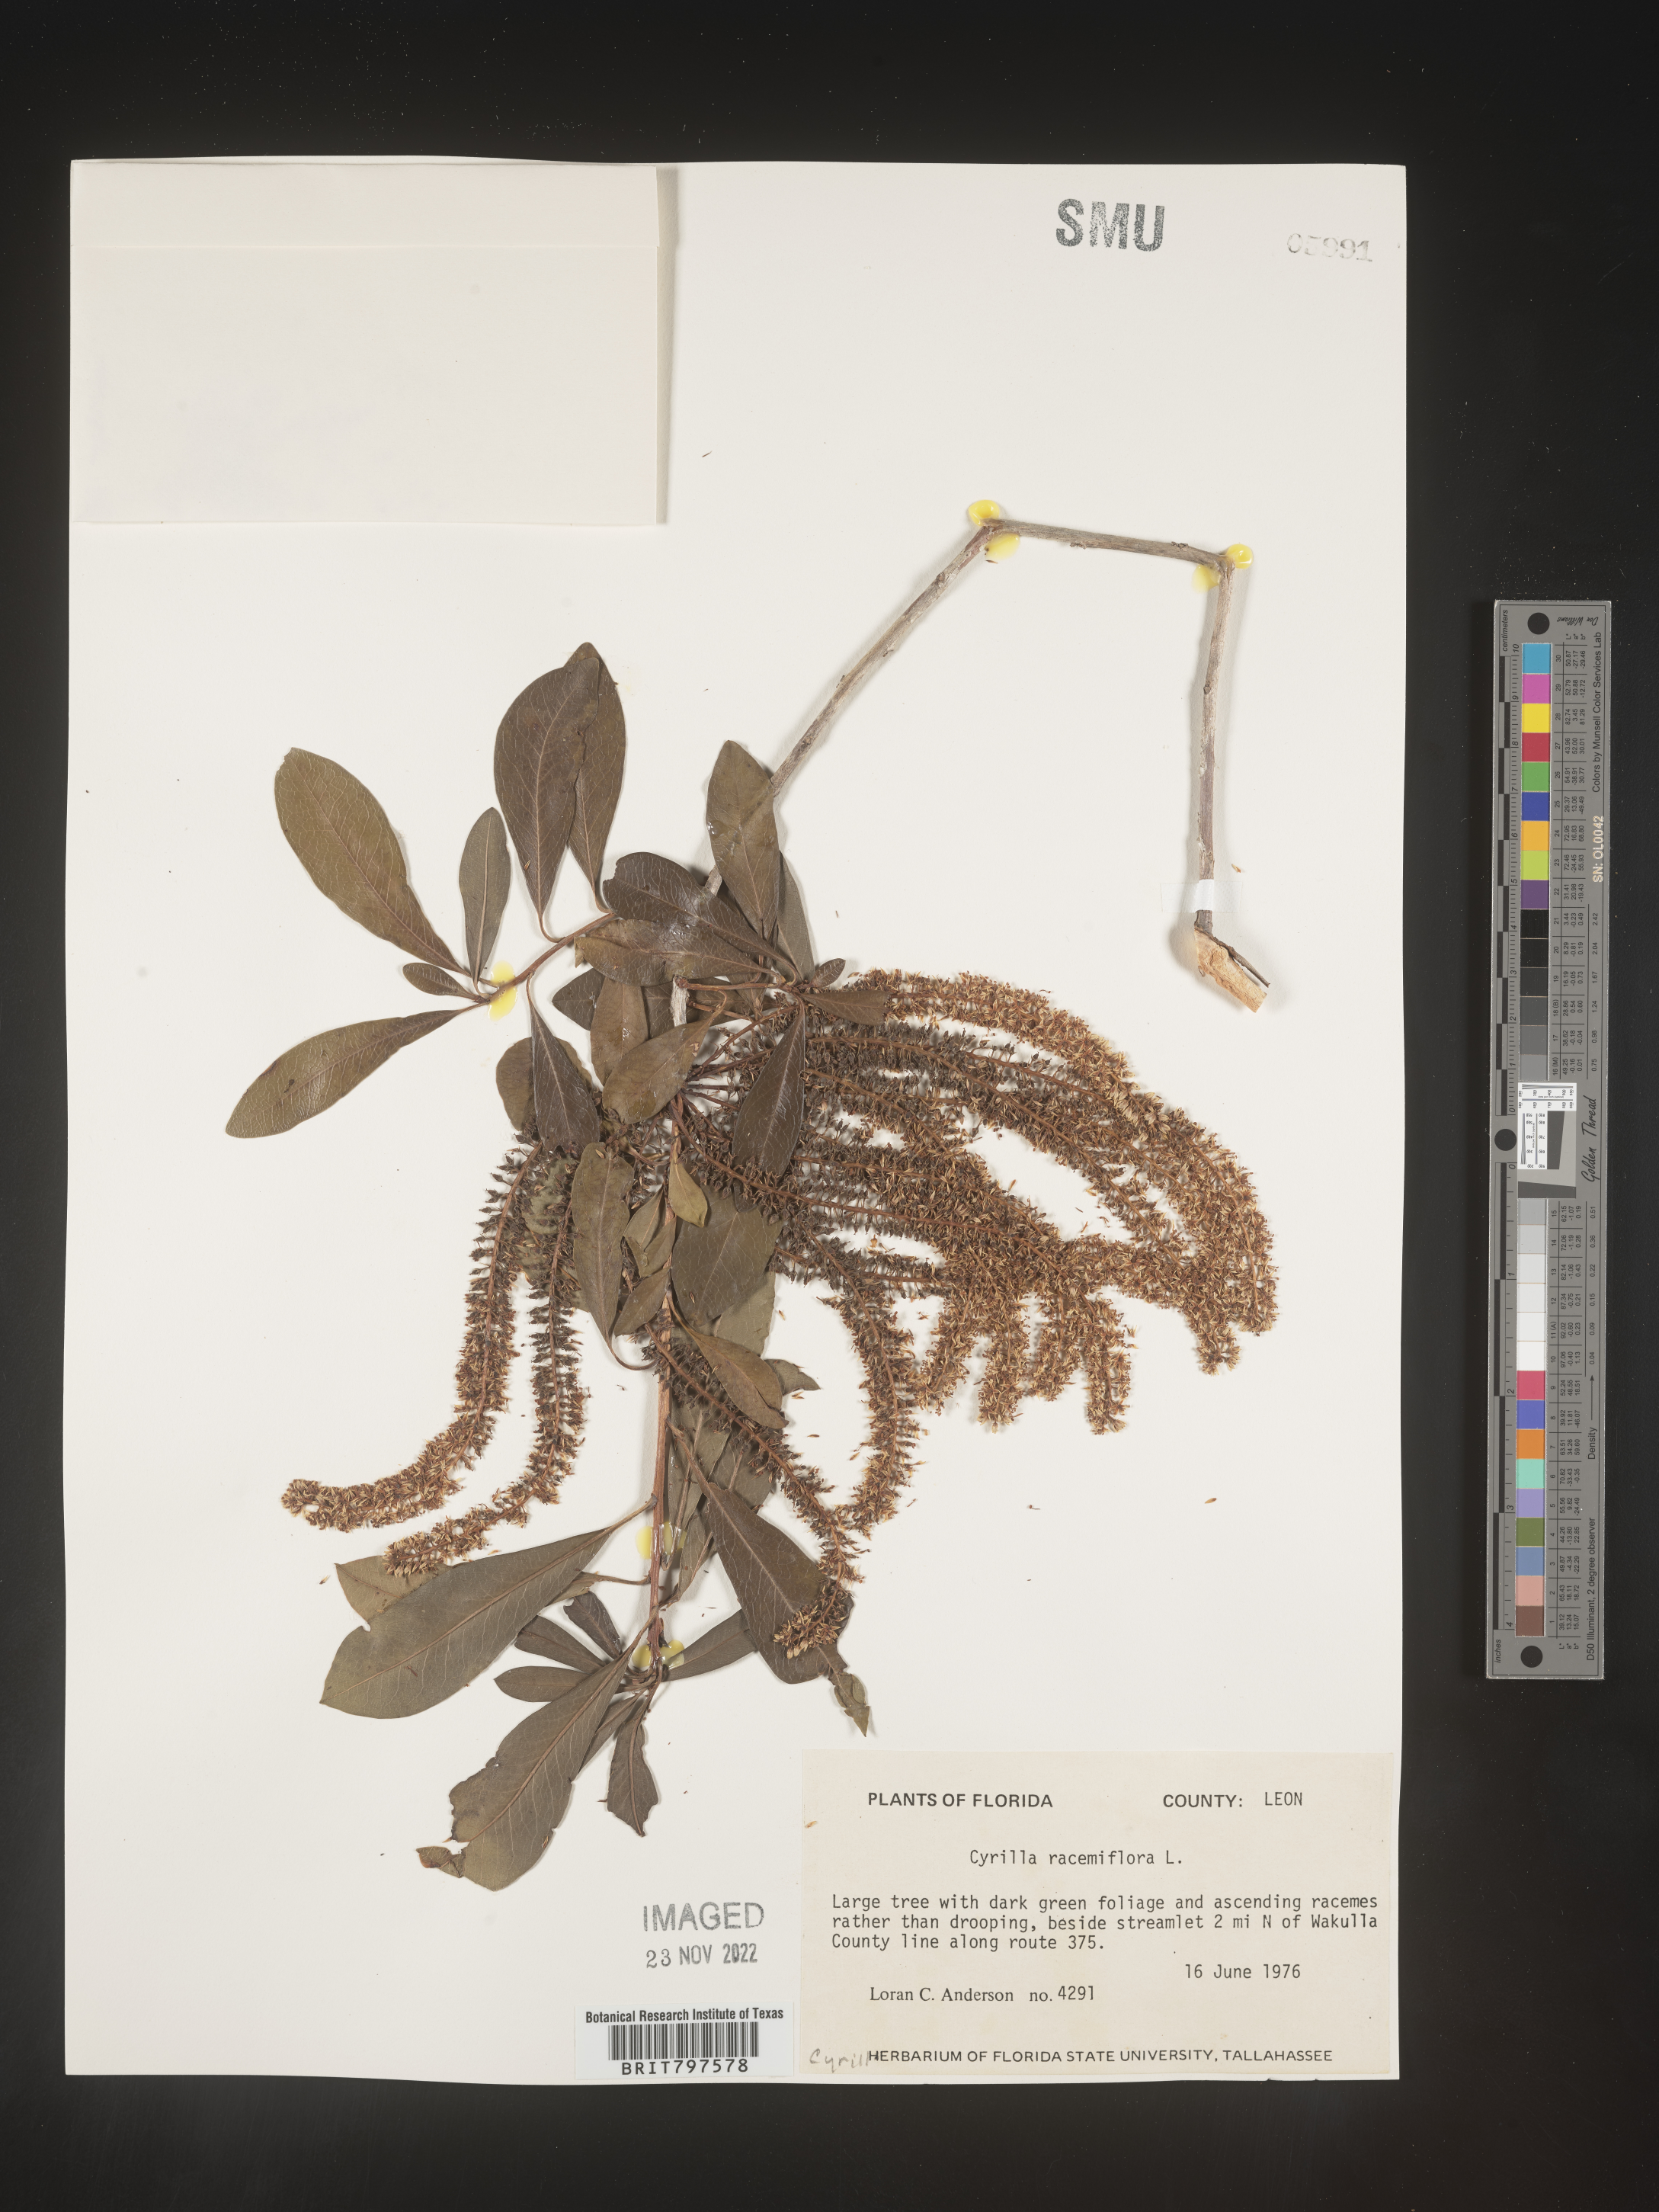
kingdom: Plantae
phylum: Tracheophyta
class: Magnoliopsida
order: Ericales
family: Cyrillaceae
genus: Cyrilla
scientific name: Cyrilla racemiflora
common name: Black titi
